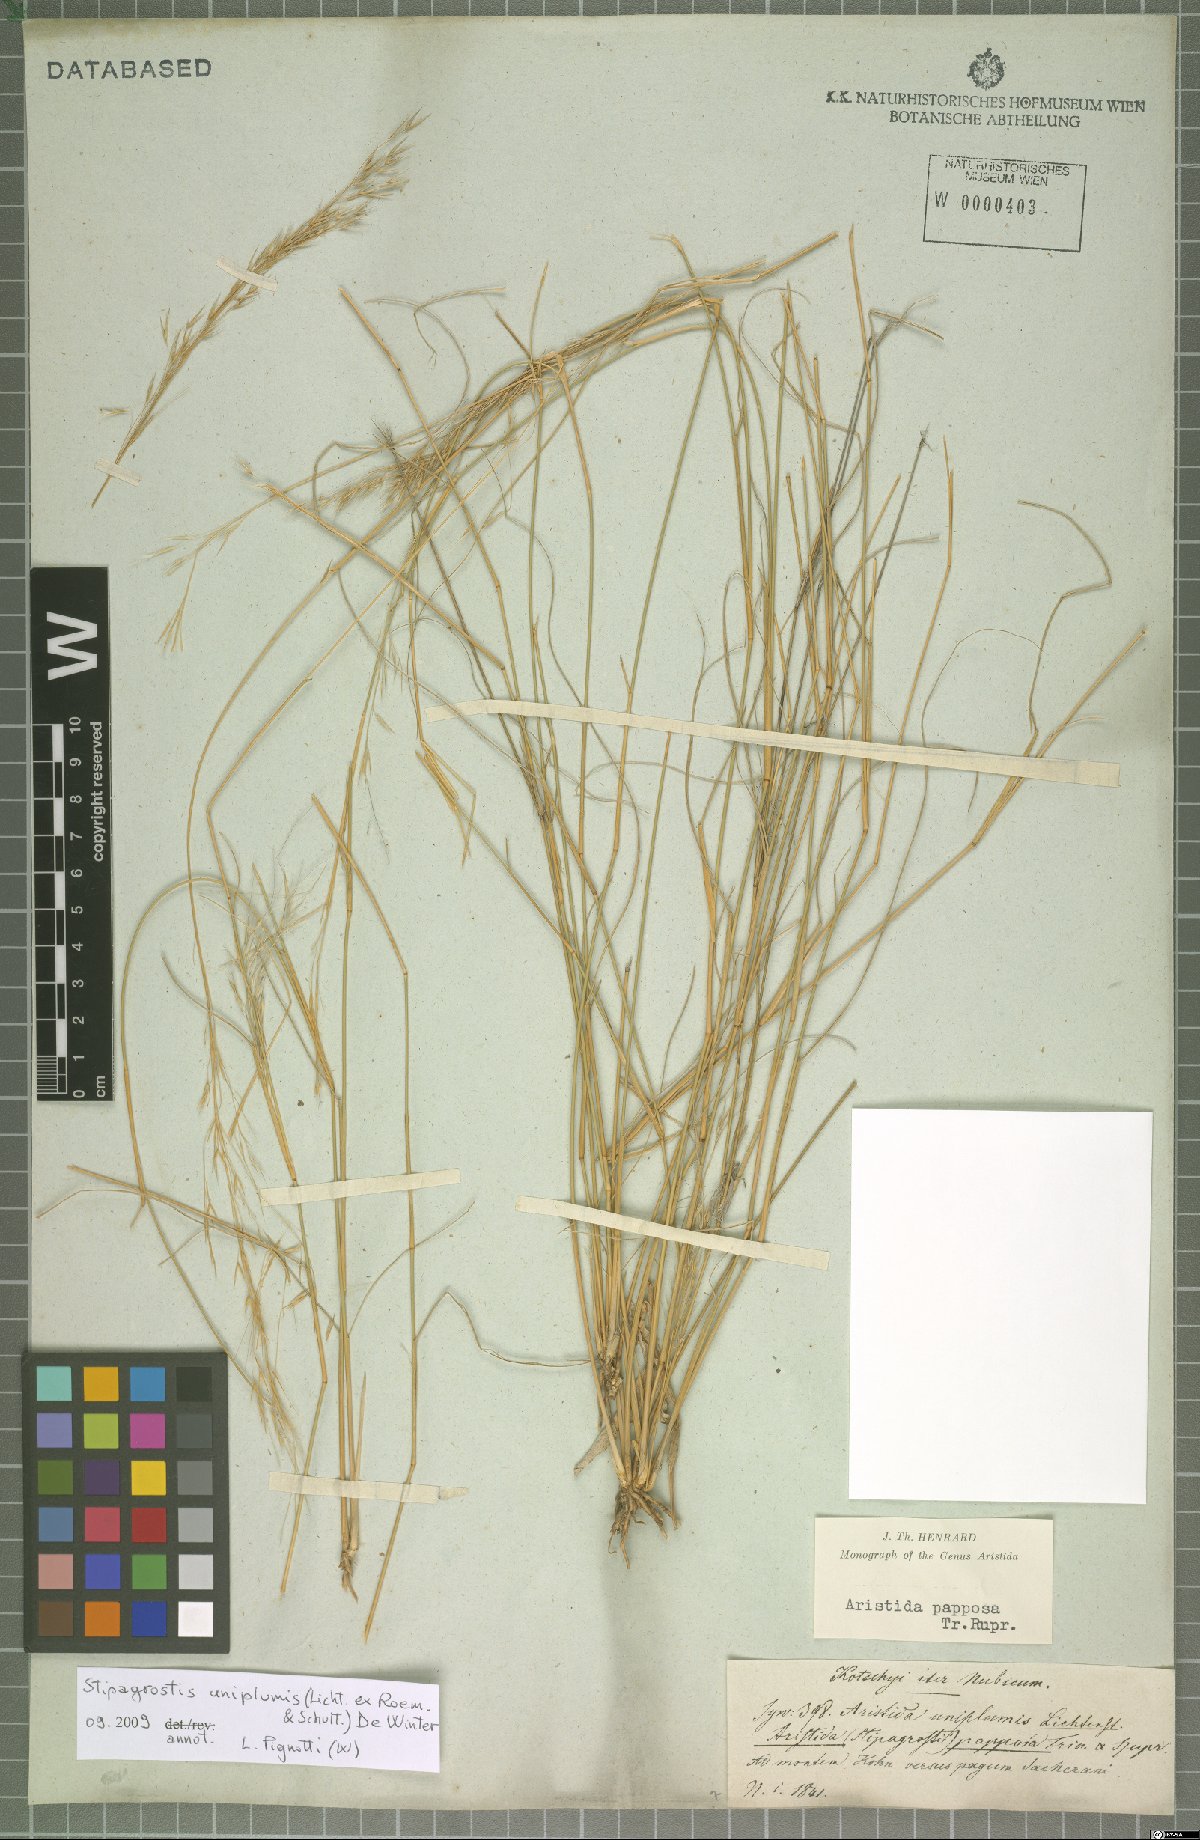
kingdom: Plantae
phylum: Tracheophyta
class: Liliopsida
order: Poales
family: Poaceae
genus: Stipagrostis
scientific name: Stipagrostis uniplumis
